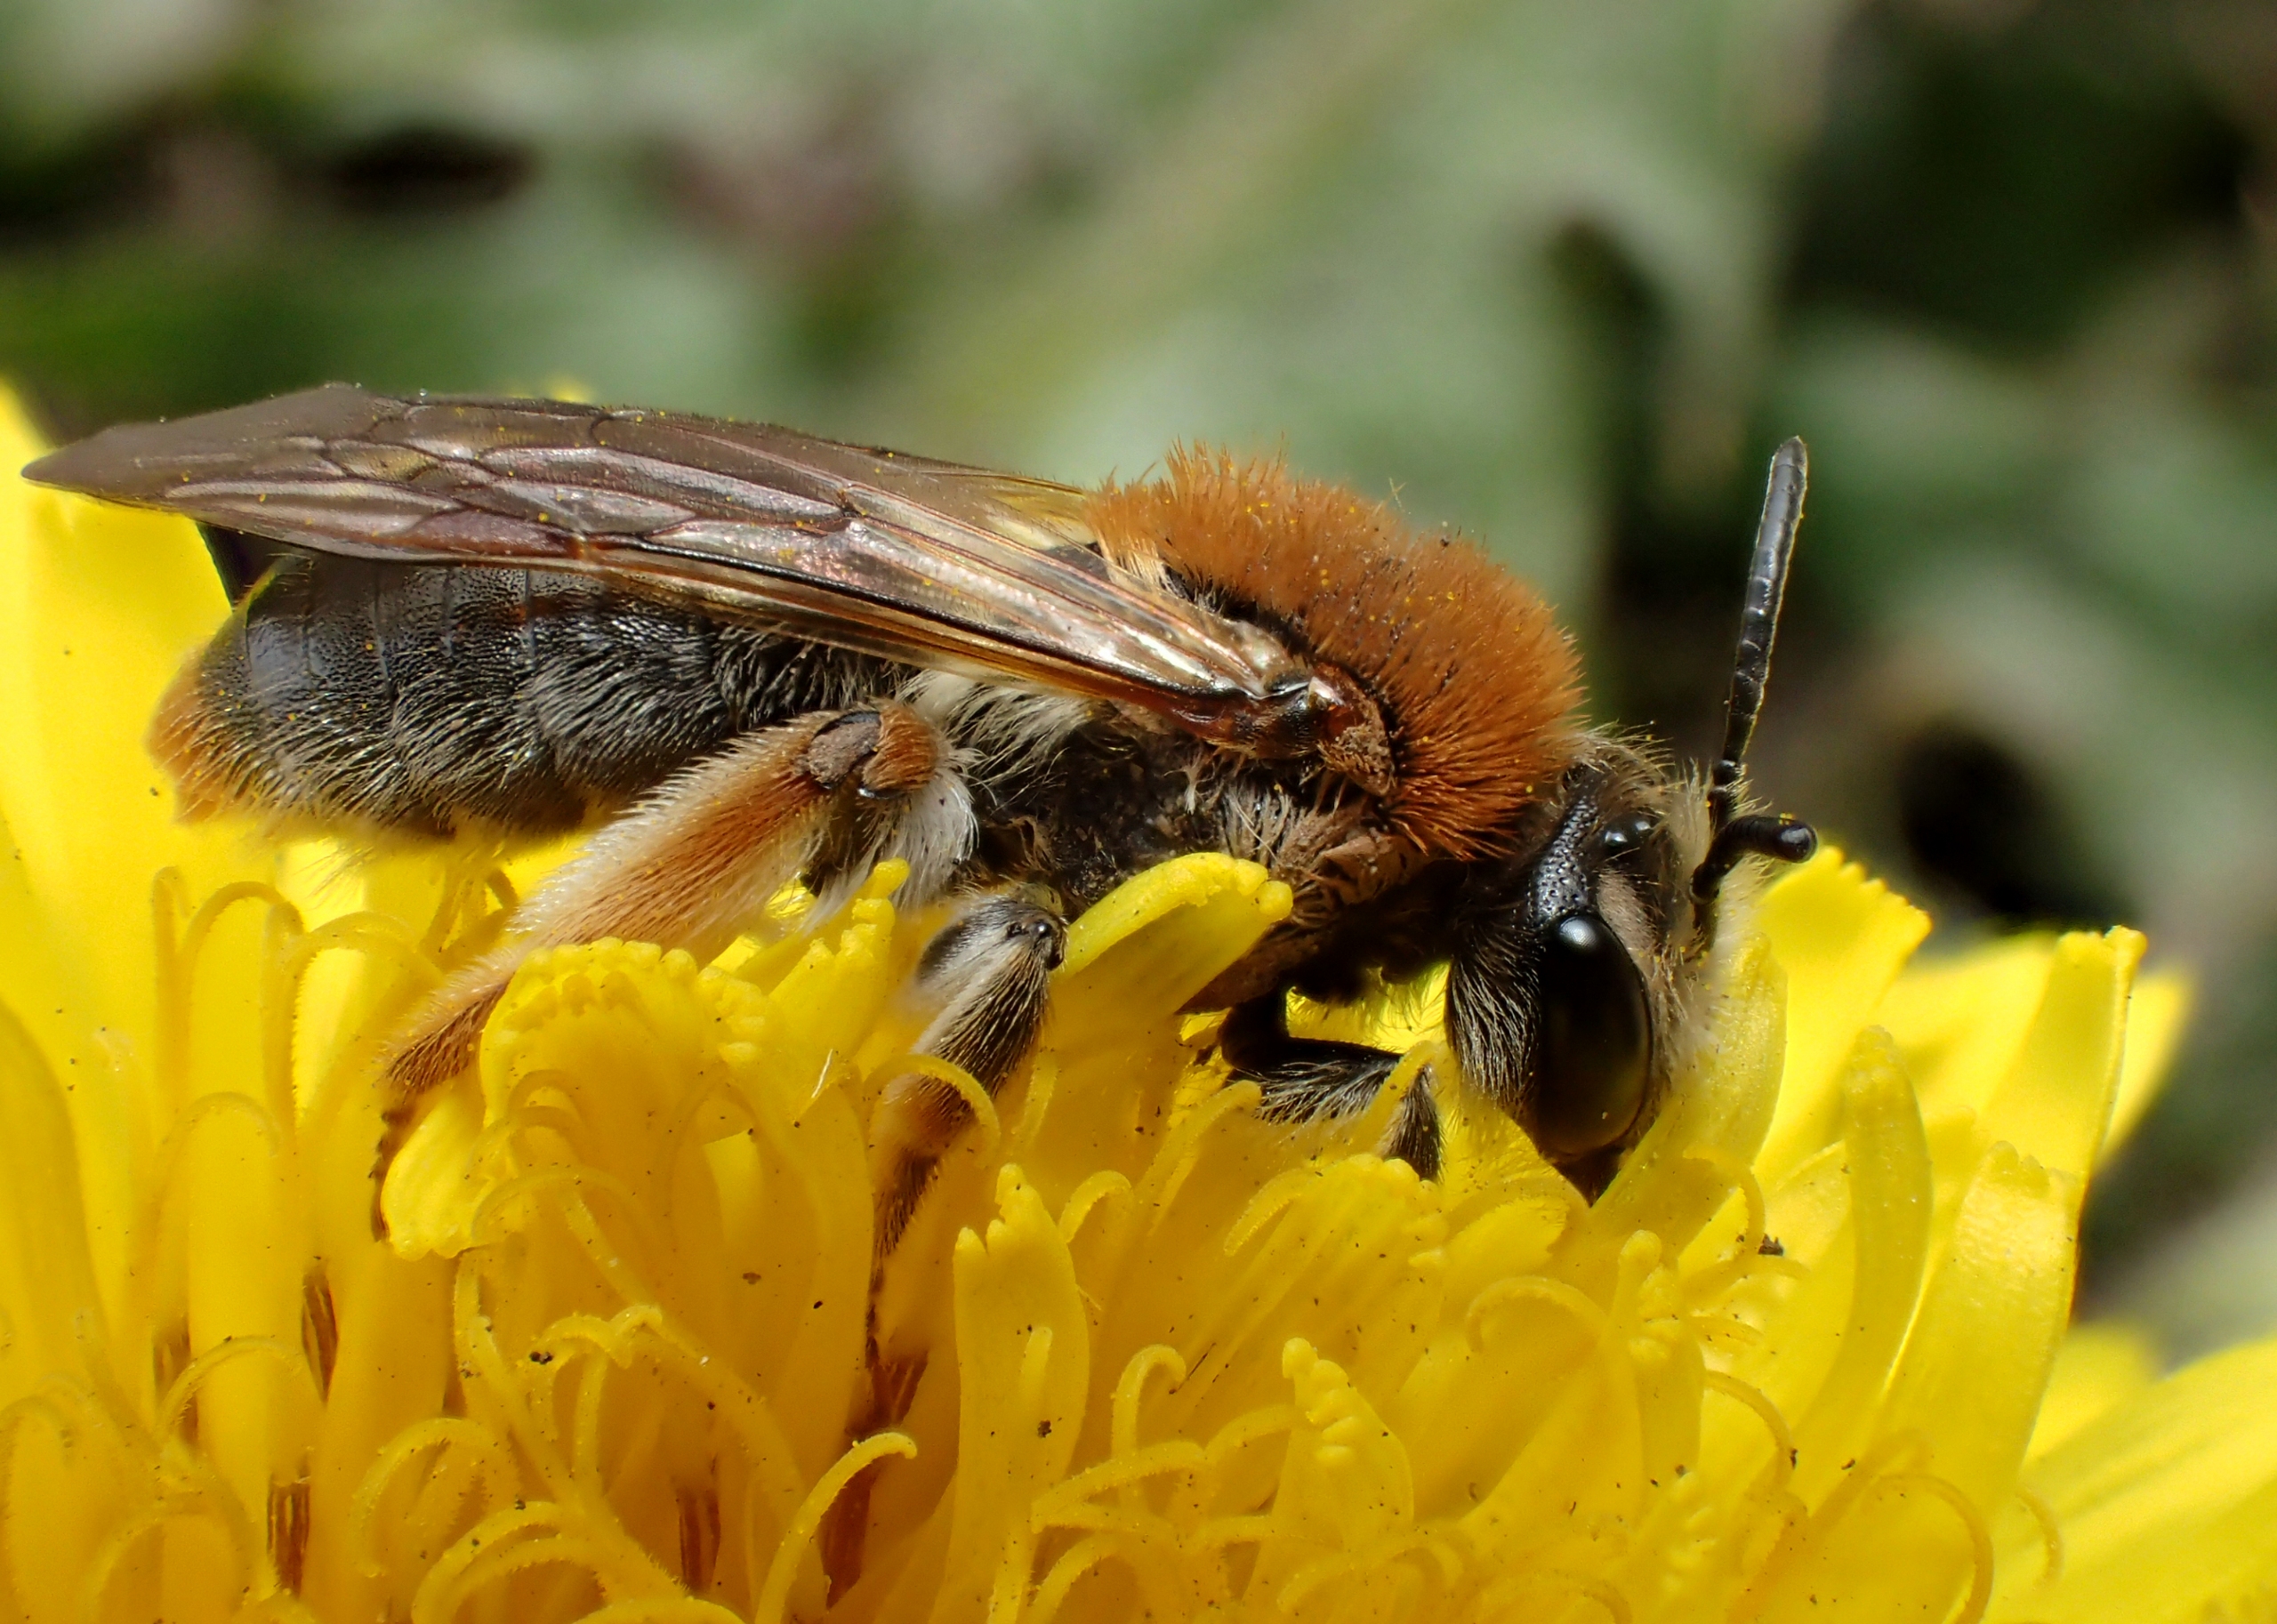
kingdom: Animalia
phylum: Arthropoda
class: Insecta
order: Hymenoptera
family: Andrenidae
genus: Andrena
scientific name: Andrena haemorrhoa
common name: Havejordbi
